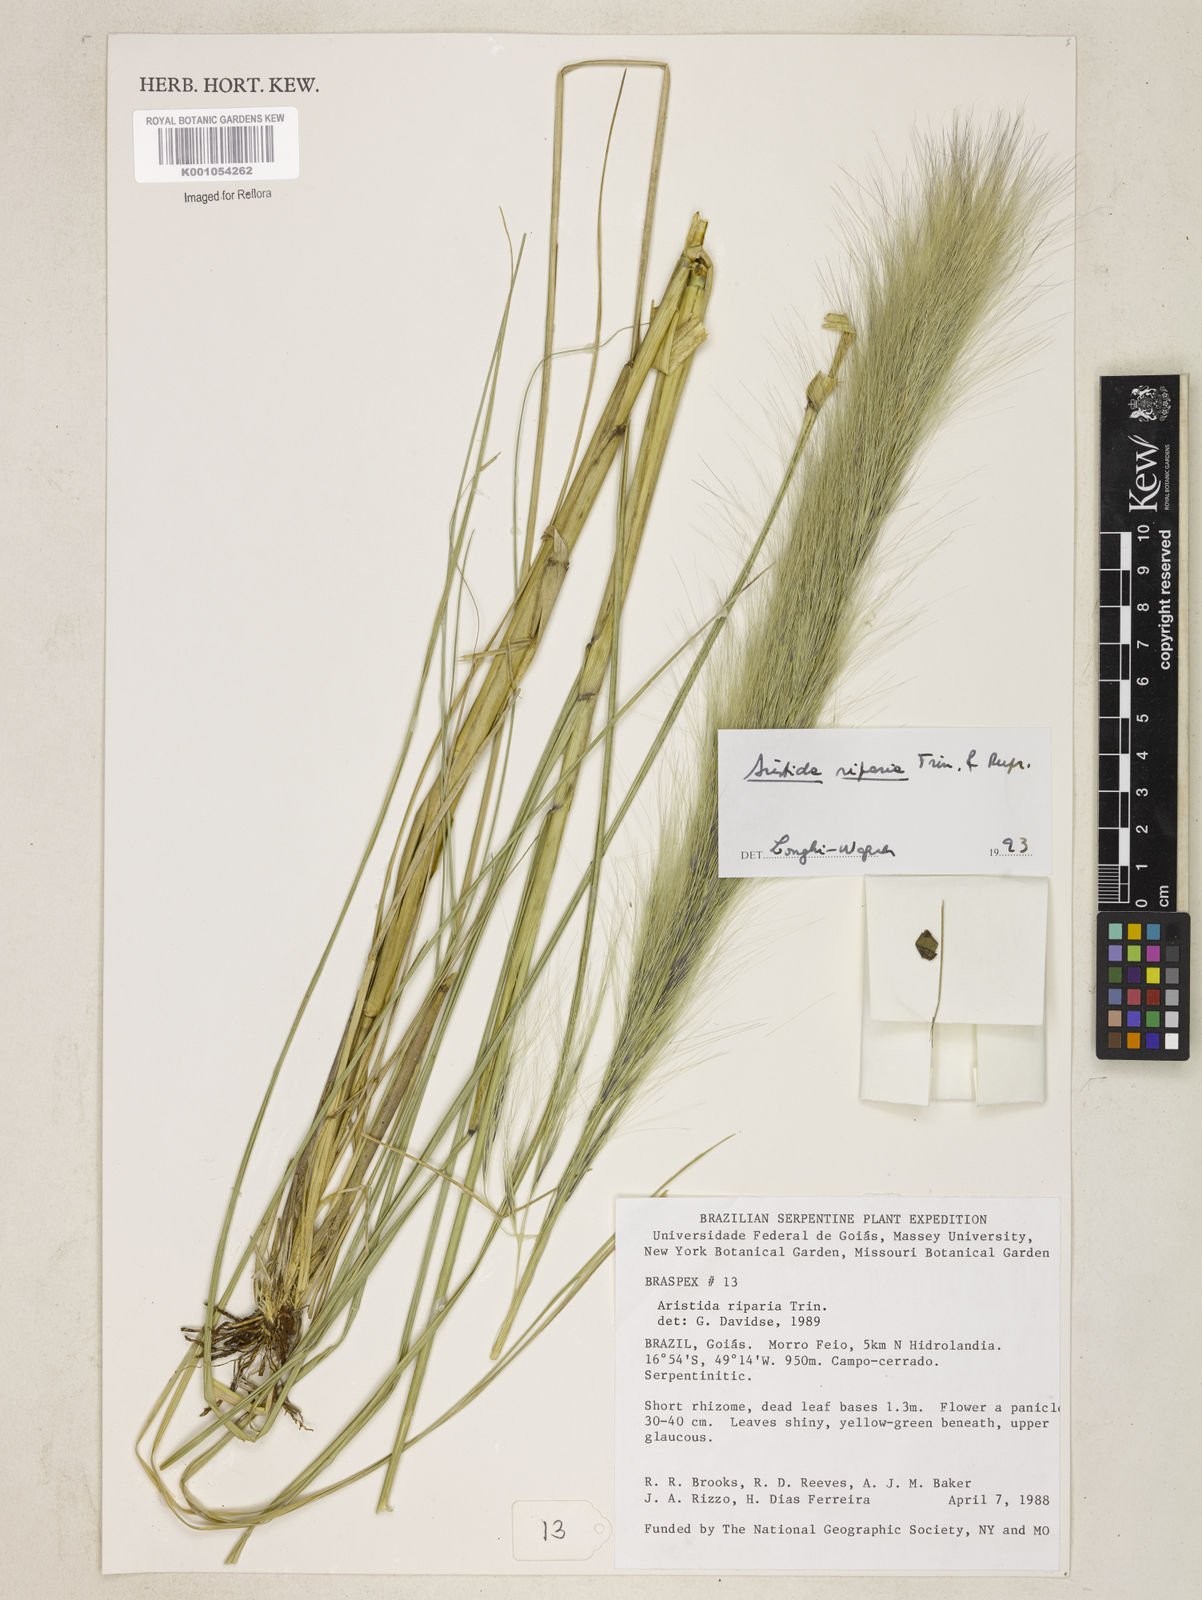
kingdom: Plantae
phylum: Tracheophyta
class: Liliopsida
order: Poales
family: Poaceae
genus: Aristida
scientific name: Aristida riparia
